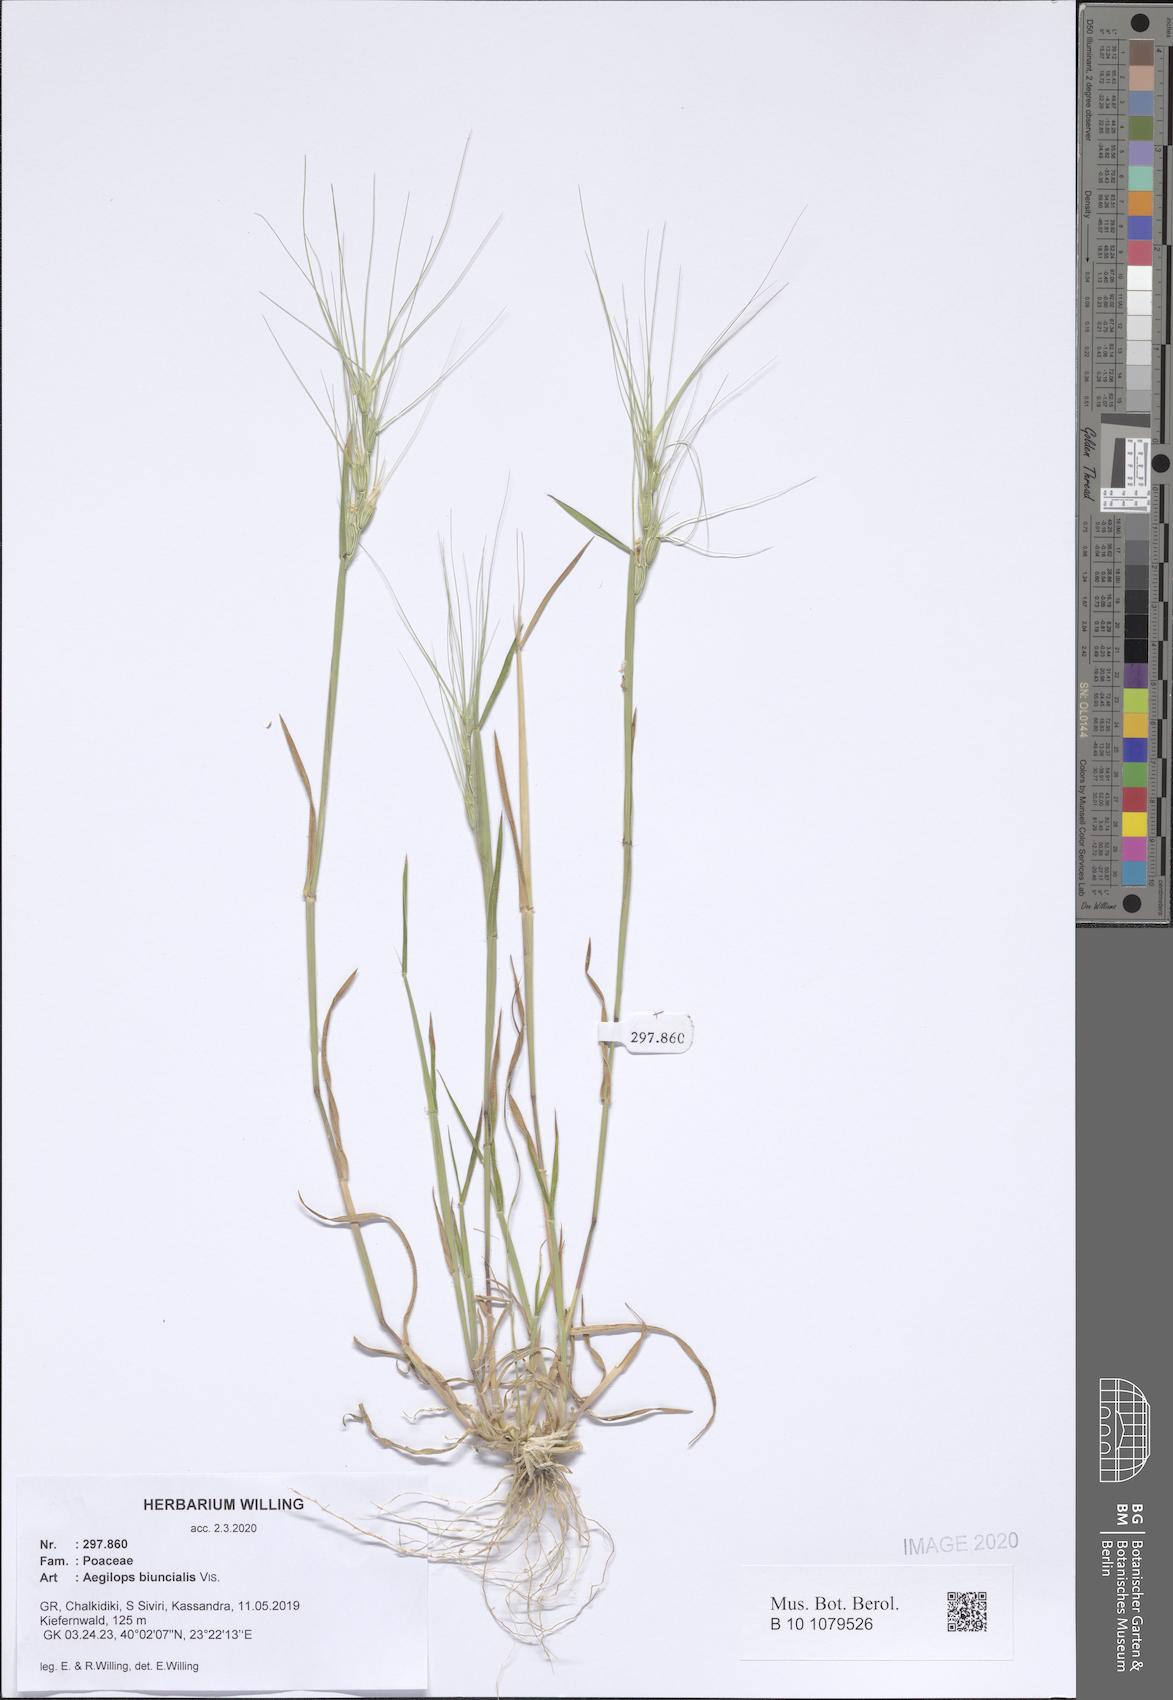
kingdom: Plantae
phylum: Tracheophyta
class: Liliopsida
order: Poales
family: Poaceae
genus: Aegilops
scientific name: Aegilops biuncialis
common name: Mediterranean aegilops
